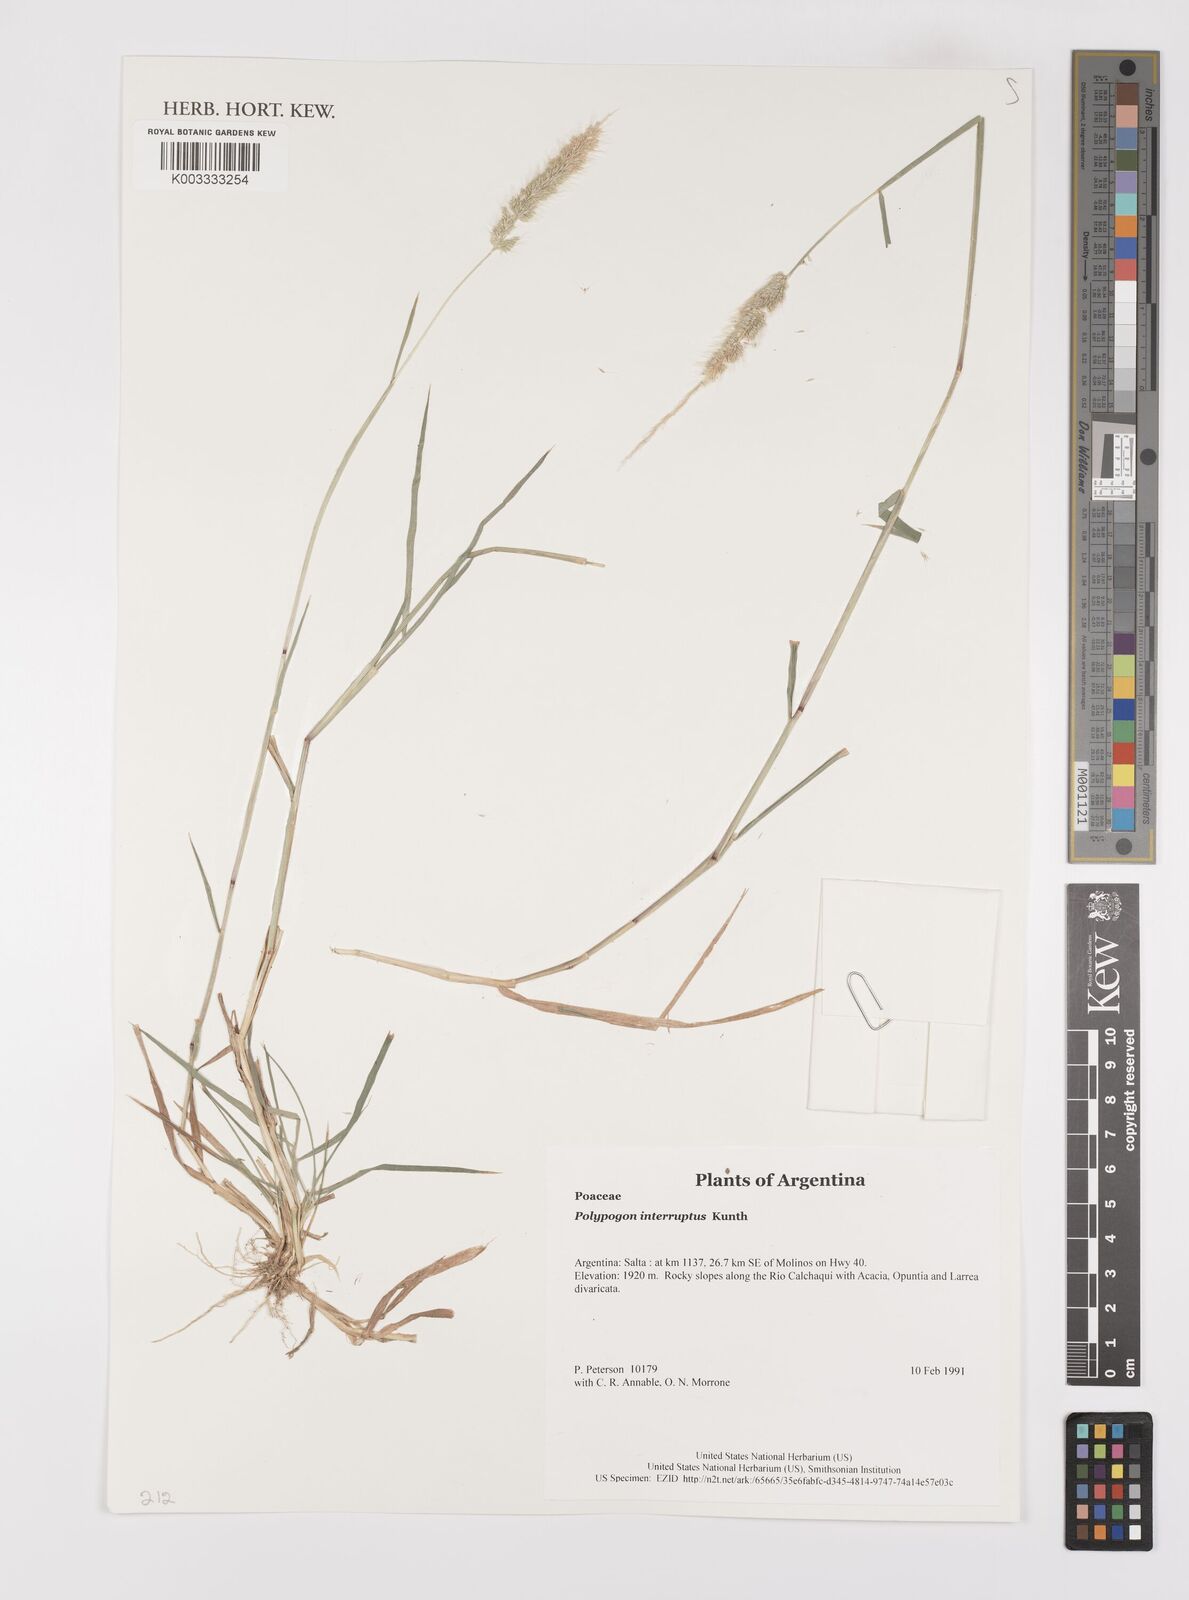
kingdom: Plantae
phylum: Tracheophyta
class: Liliopsida
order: Poales
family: Poaceae
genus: Polypogon
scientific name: Polypogon interruptus
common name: Ditch polypogon
